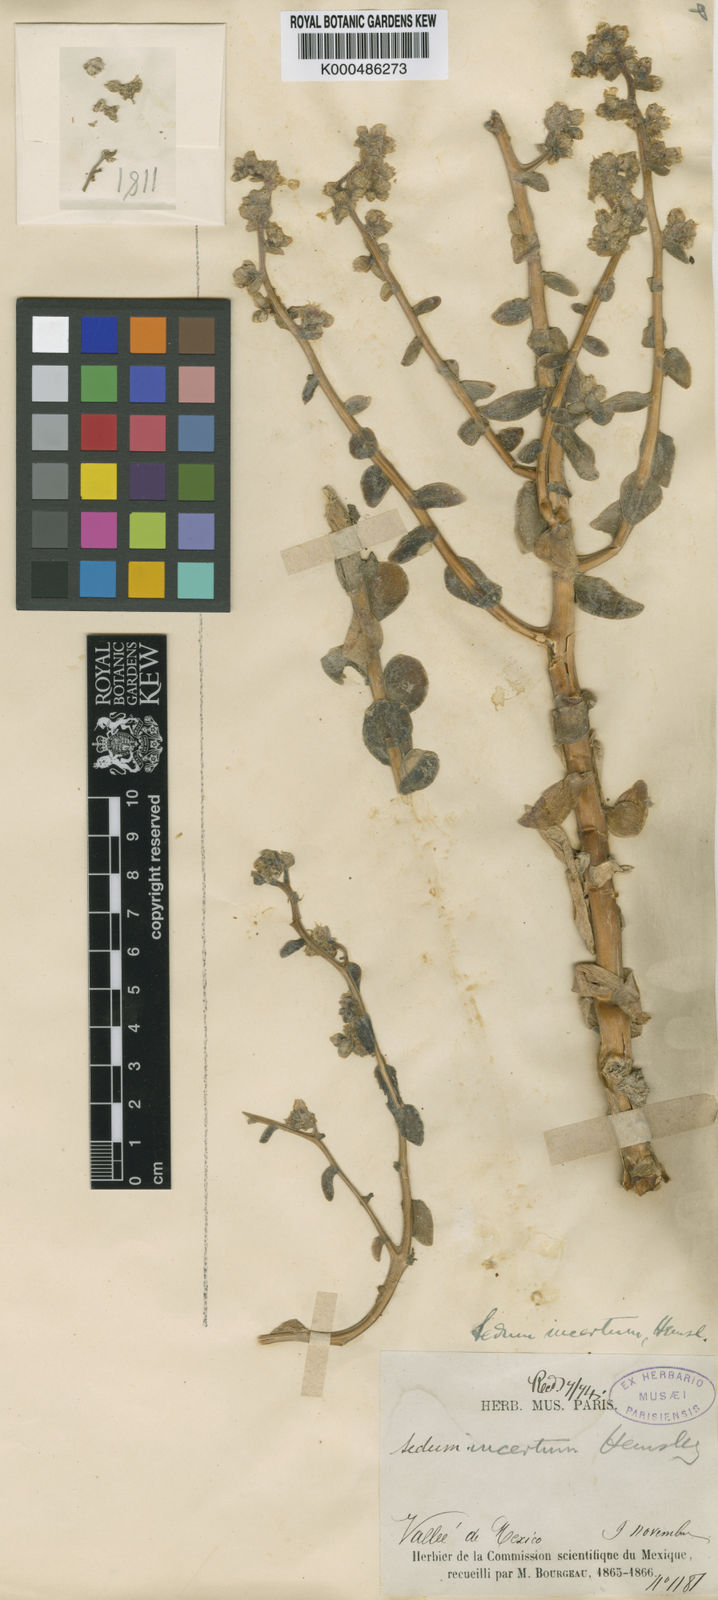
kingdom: Plantae
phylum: Tracheophyta
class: Magnoliopsida
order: Saxifragales
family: Crassulaceae
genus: Sedum
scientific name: Sedum
